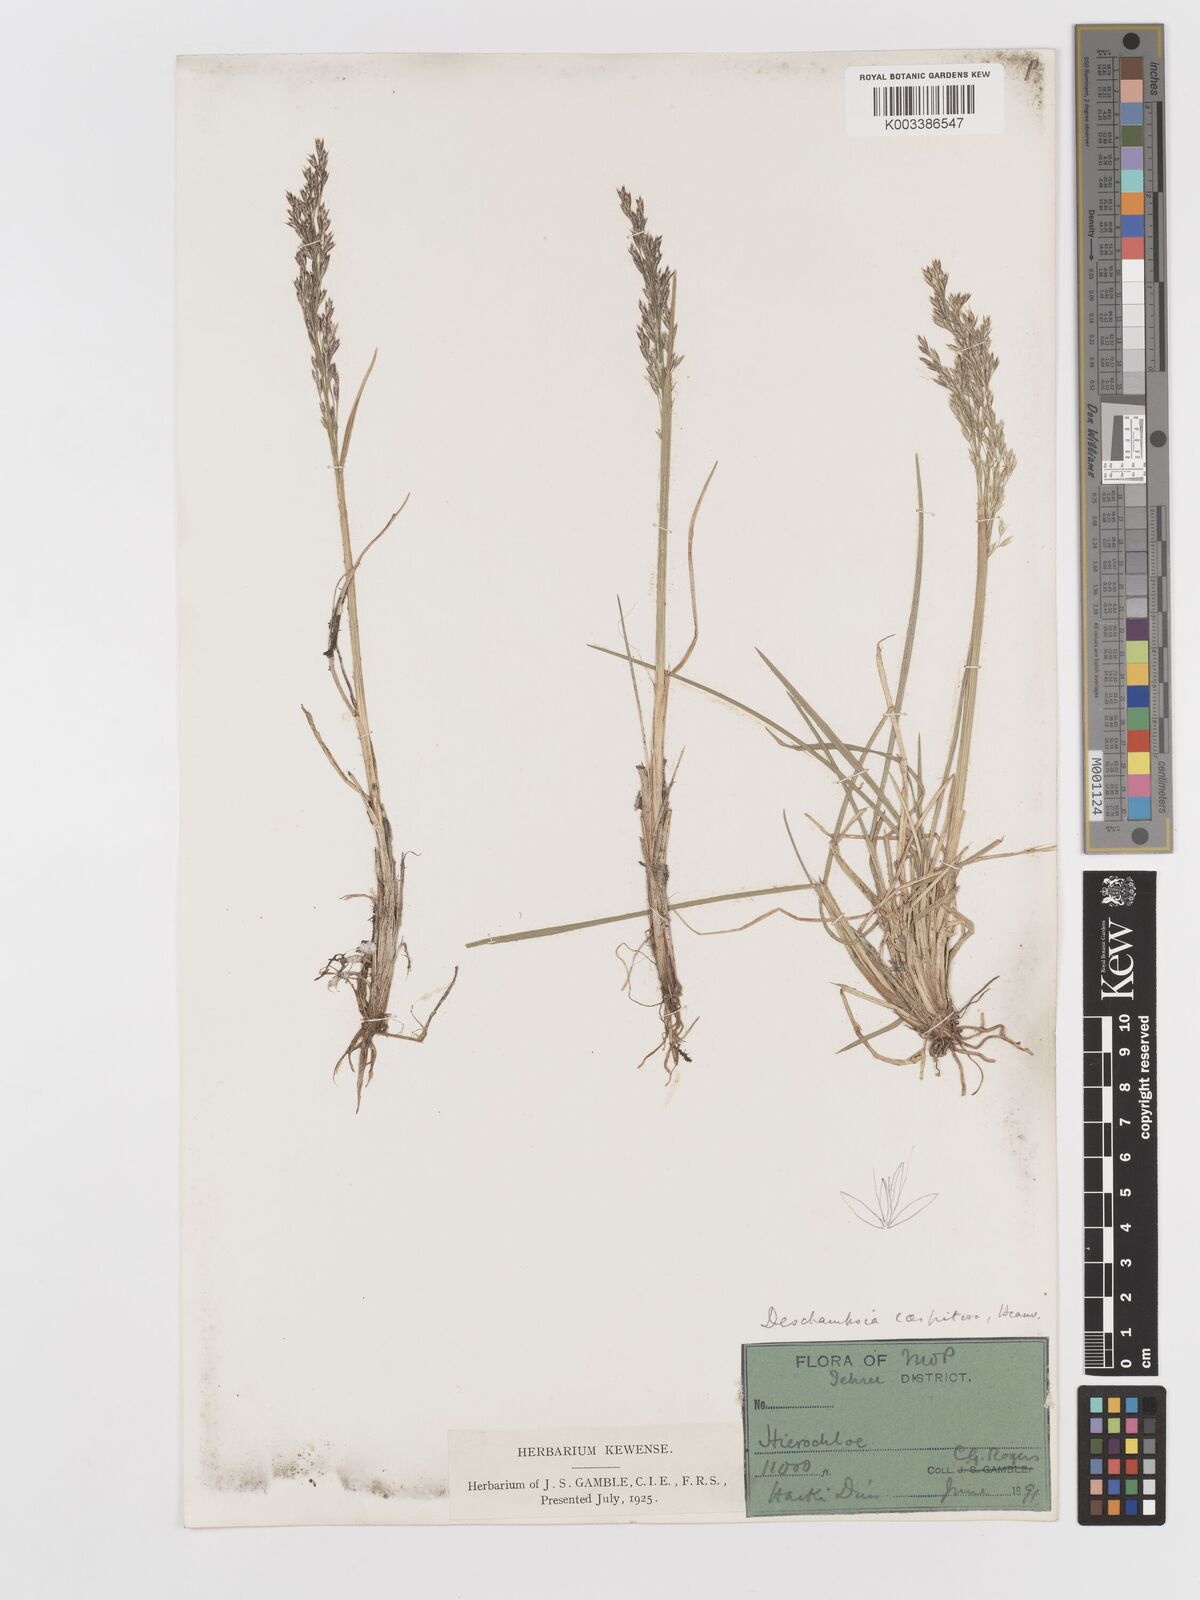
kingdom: Plantae
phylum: Tracheophyta
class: Liliopsida
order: Poales
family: Poaceae
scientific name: Poaceae
